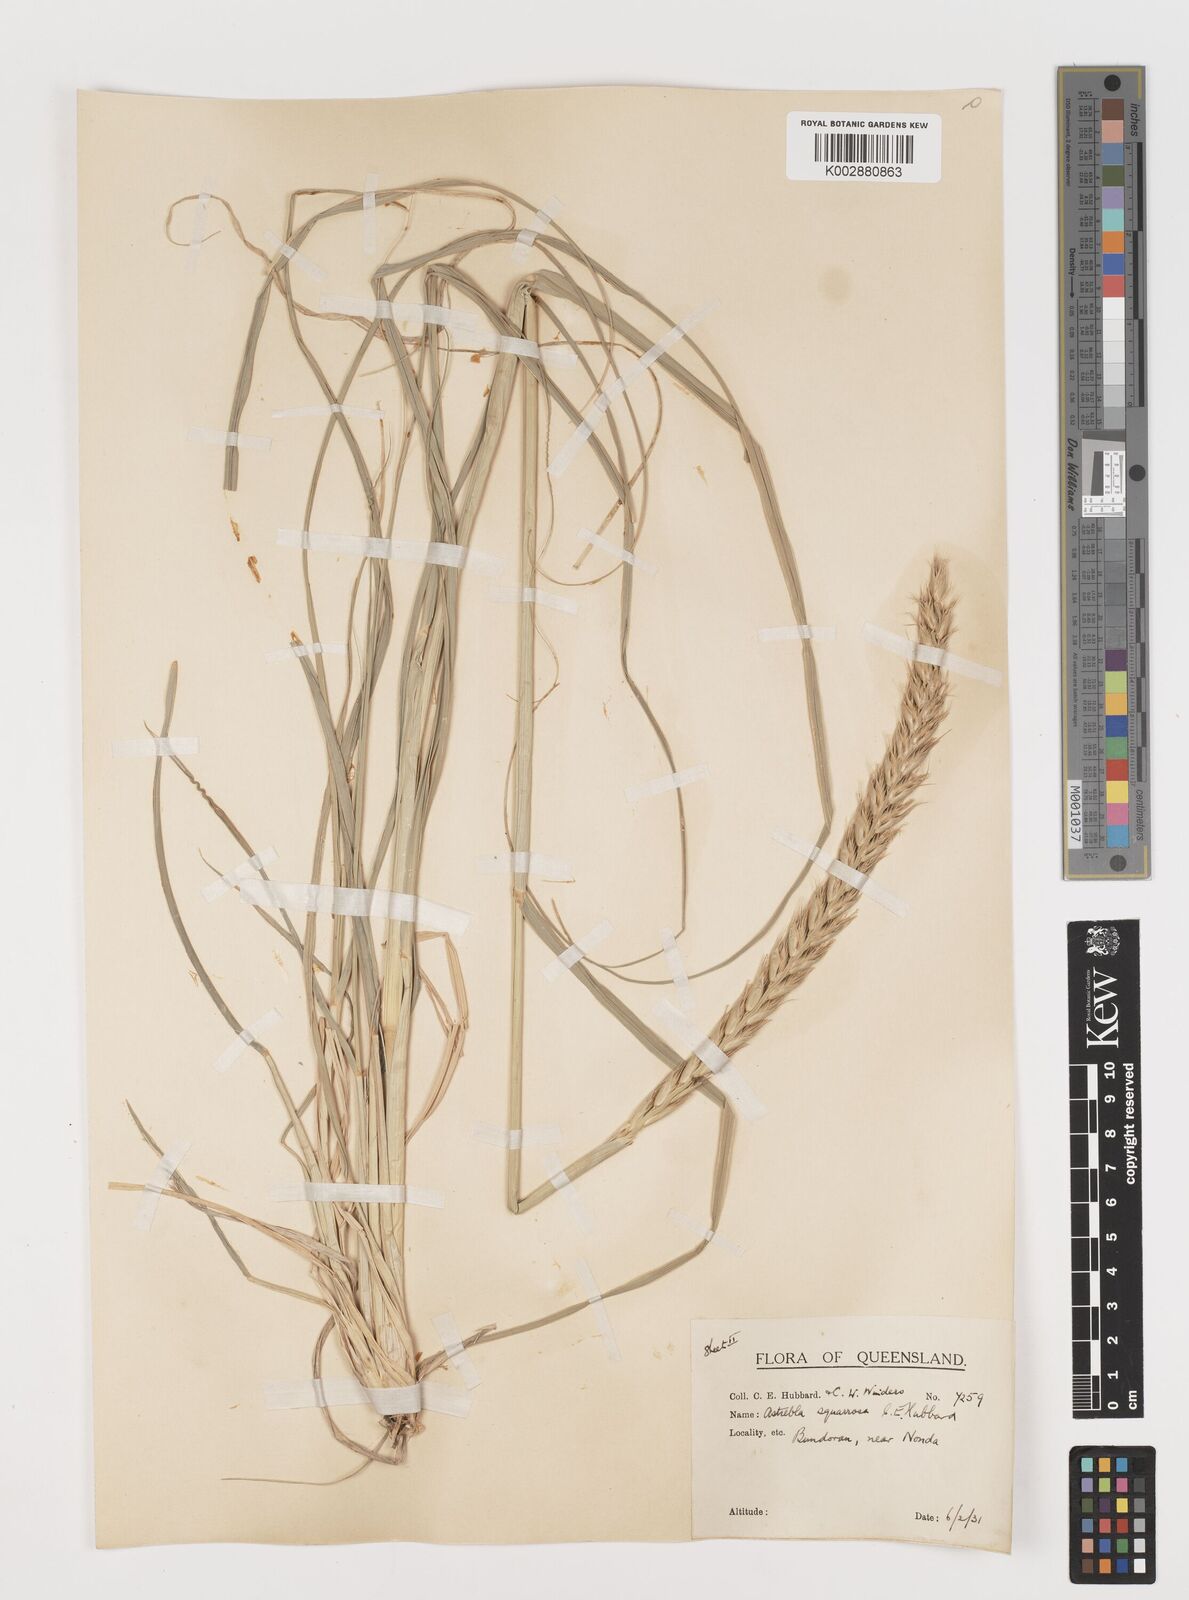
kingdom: Plantae
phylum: Tracheophyta
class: Liliopsida
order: Poales
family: Poaceae
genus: Astrebla
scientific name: Astrebla squarrosa
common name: Wheat-ear mitchell grass
